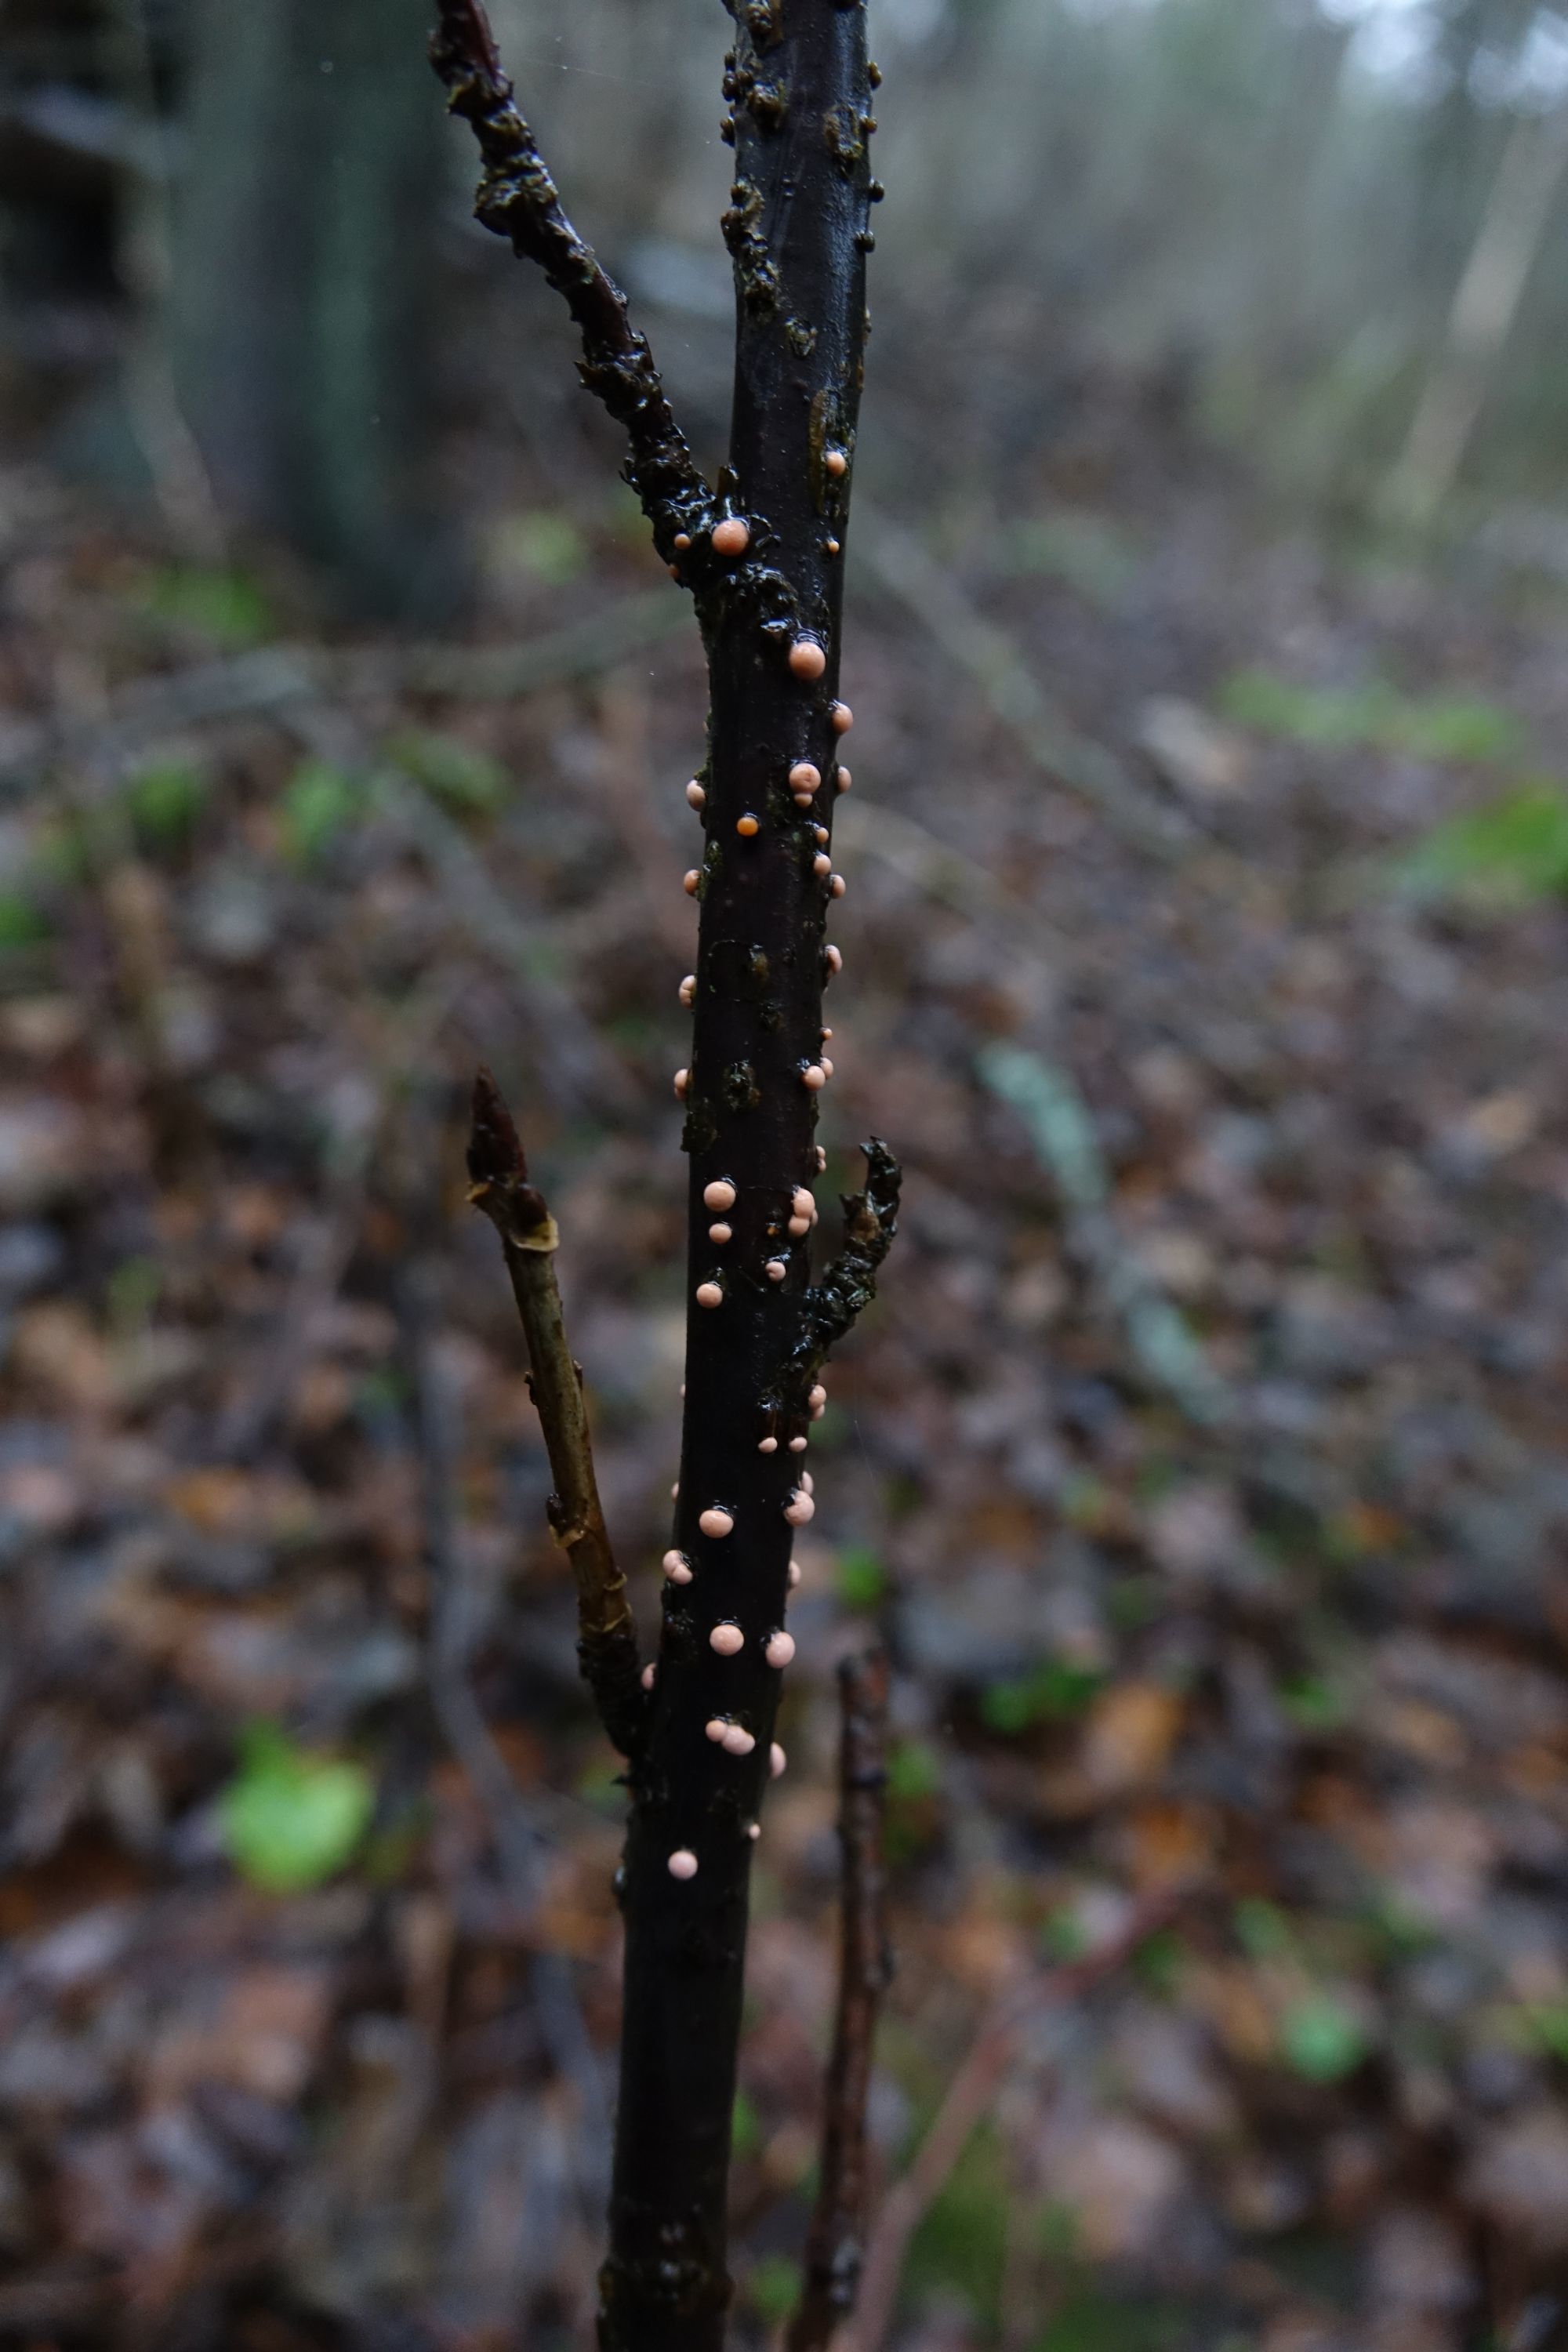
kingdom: Fungi
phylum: Ascomycota
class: Sordariomycetes
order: Hypocreales
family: Nectriaceae
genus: Nectria
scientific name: Nectria cinnabarina
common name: Coral spot
